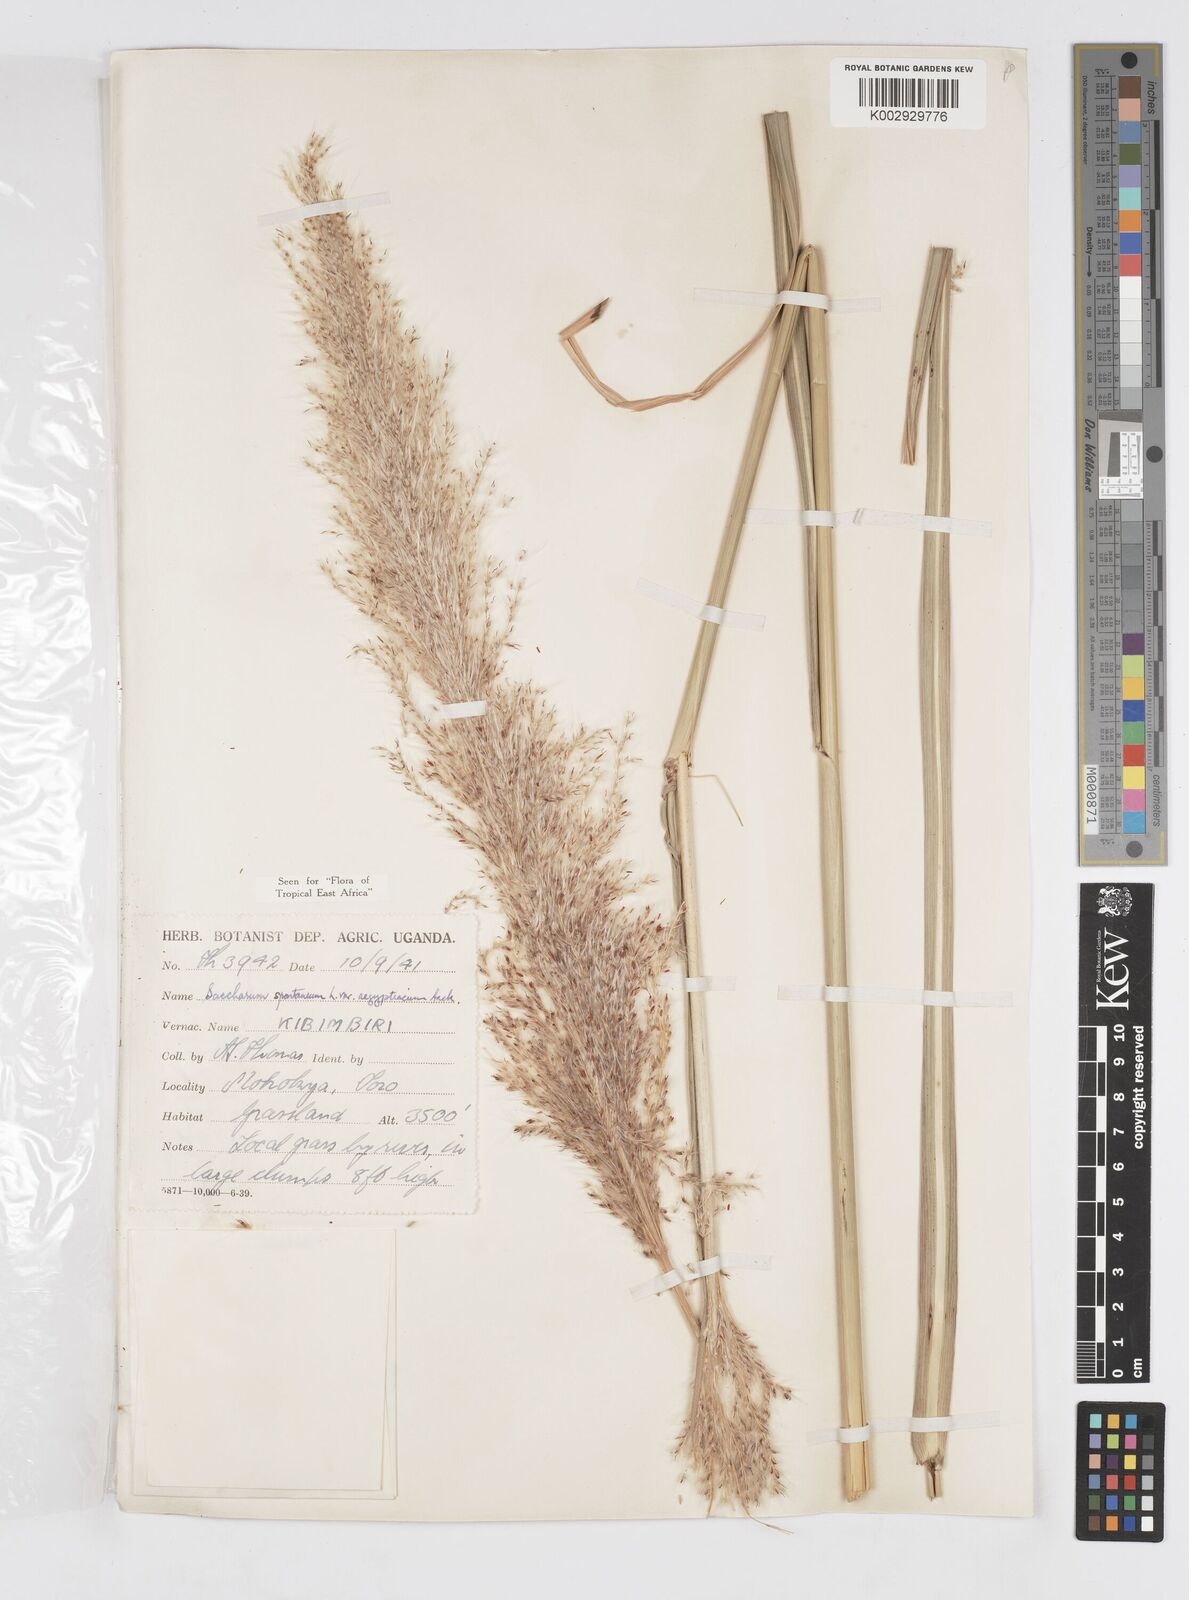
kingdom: Plantae
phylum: Tracheophyta
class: Liliopsida
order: Poales
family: Poaceae
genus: Saccharum
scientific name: Saccharum spontaneum
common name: Wild sugarcane
